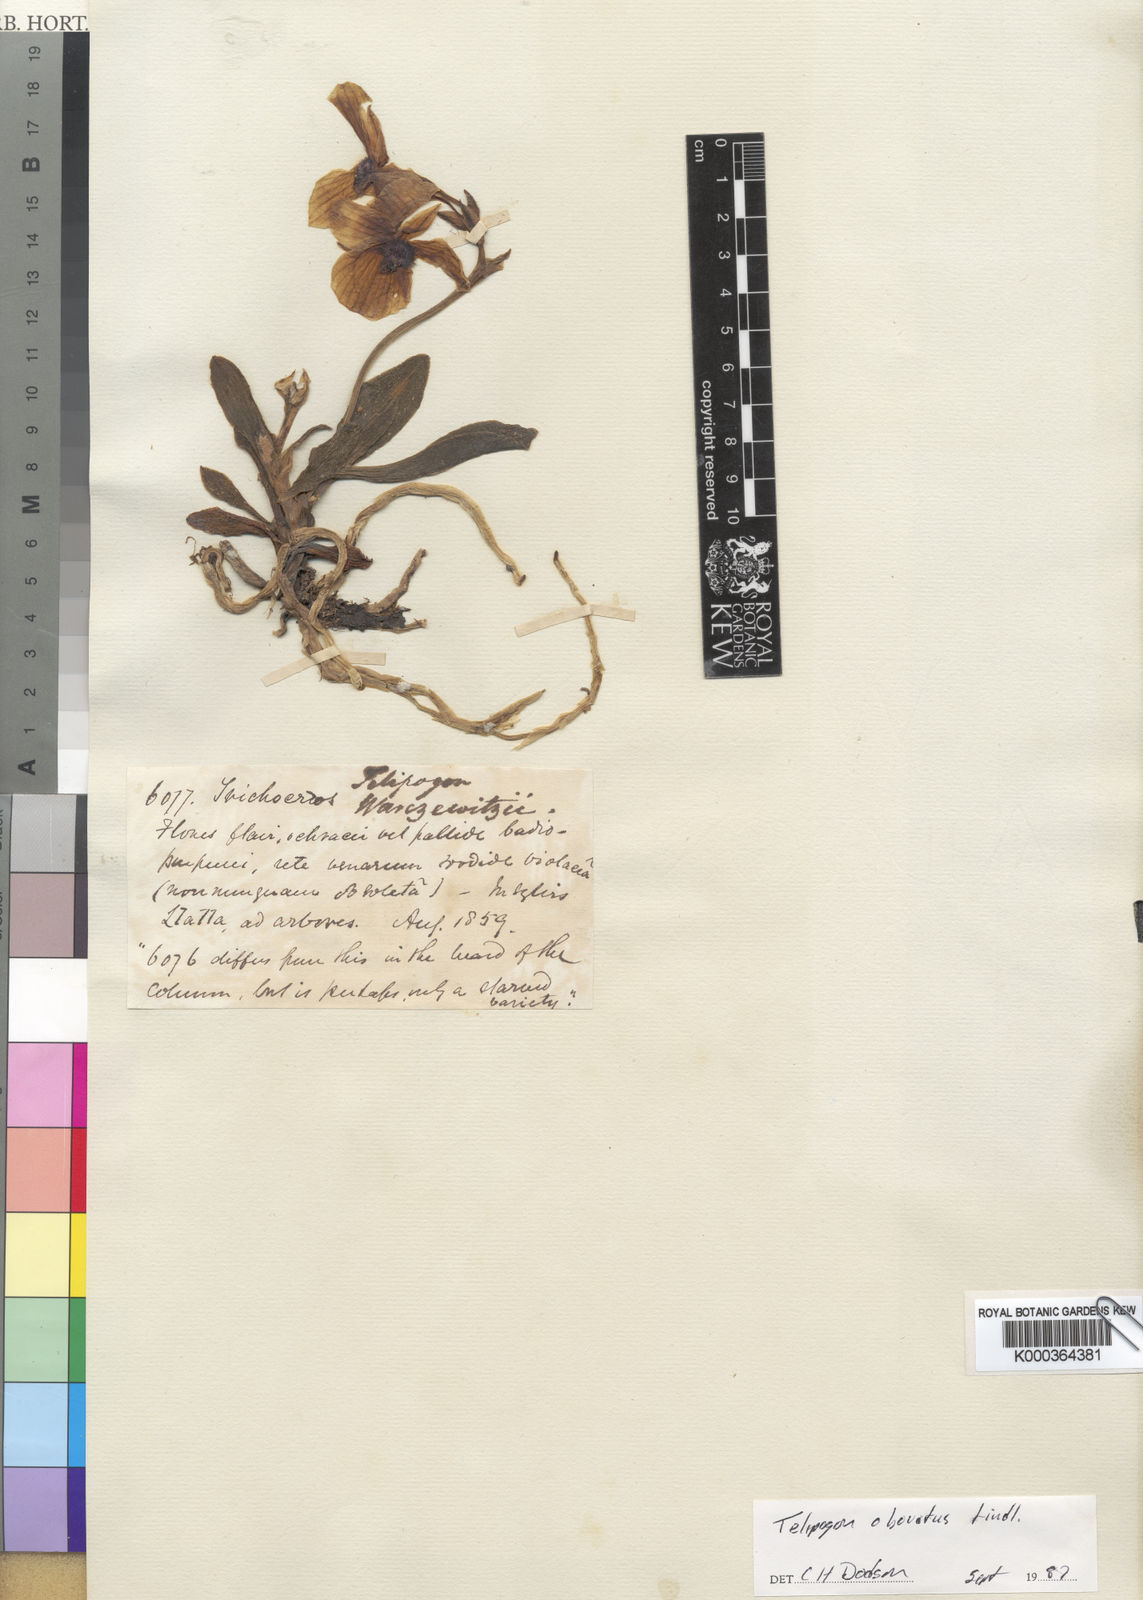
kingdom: Plantae
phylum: Tracheophyta
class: Liliopsida
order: Asparagales
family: Orchidaceae
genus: Telipogon
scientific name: Telipogon obovatus
